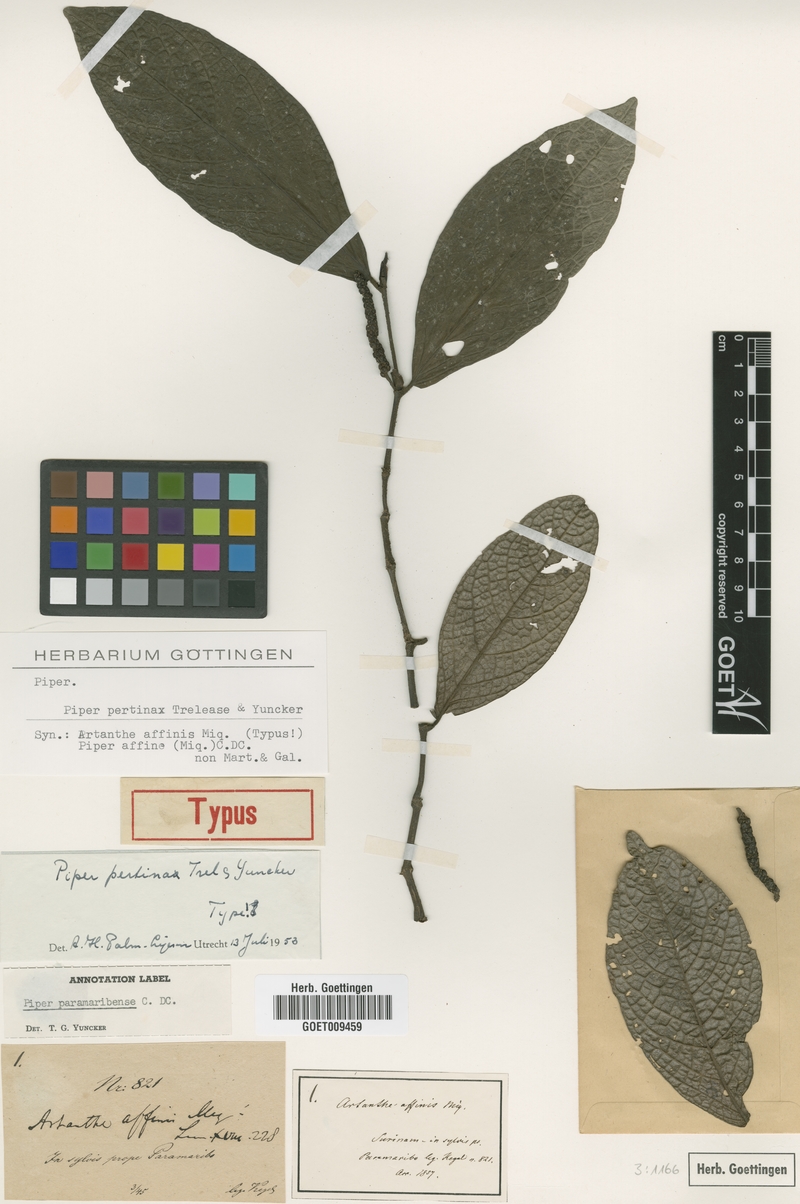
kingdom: Plantae
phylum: Tracheophyta
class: Magnoliopsida
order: Piperales
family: Piperaceae
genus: Piper
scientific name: Piper pertinax
